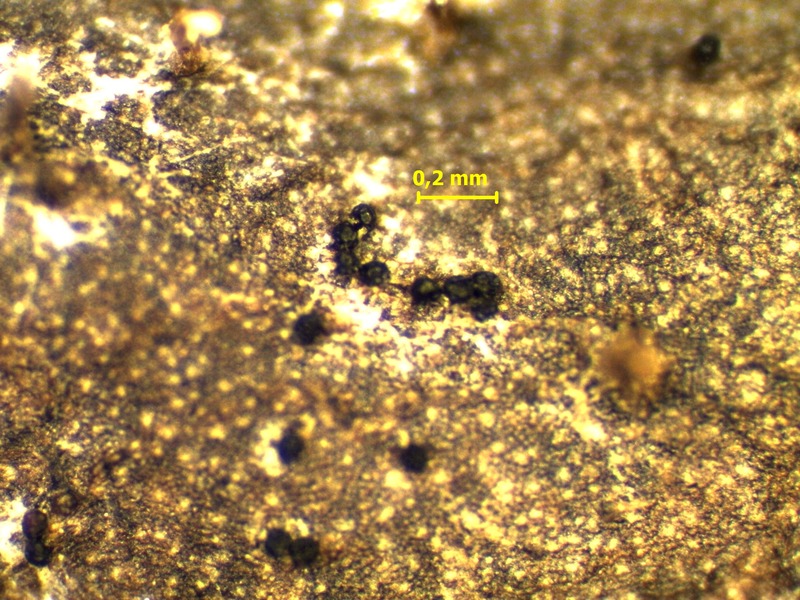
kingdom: Fungi
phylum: Ascomycota
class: Leotiomycetes
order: Helotiales
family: Erysiphaceae
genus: Podosphaera
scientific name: Podosphaera fusca
